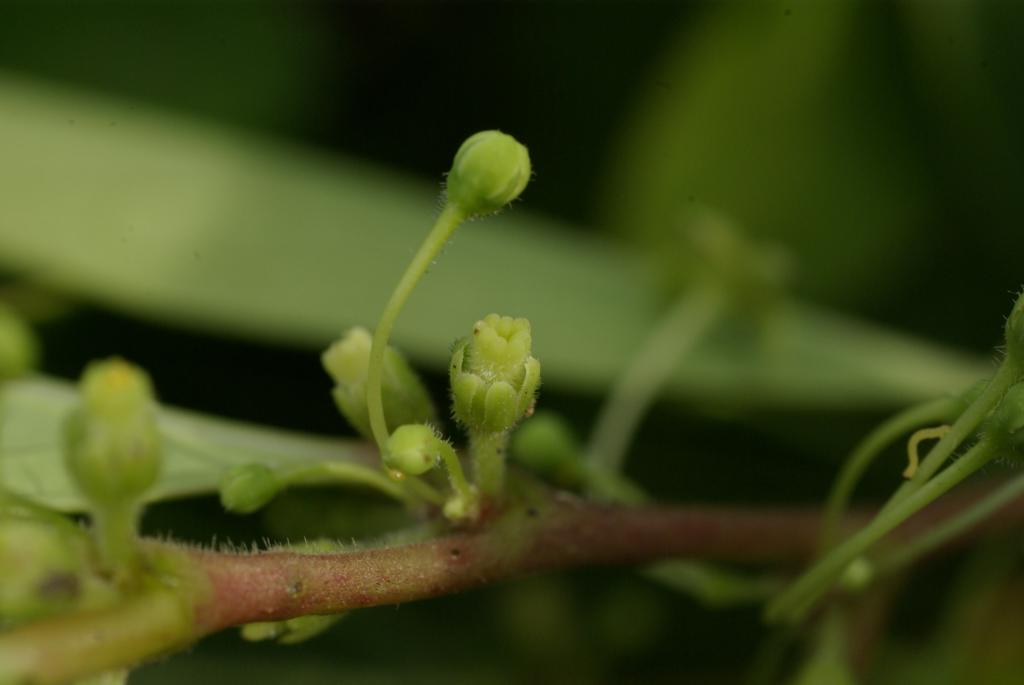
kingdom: Plantae
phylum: Tracheophyta
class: Magnoliopsida
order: Malpighiales
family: Phyllanthaceae
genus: Glochidion
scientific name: Glochidion puberum
